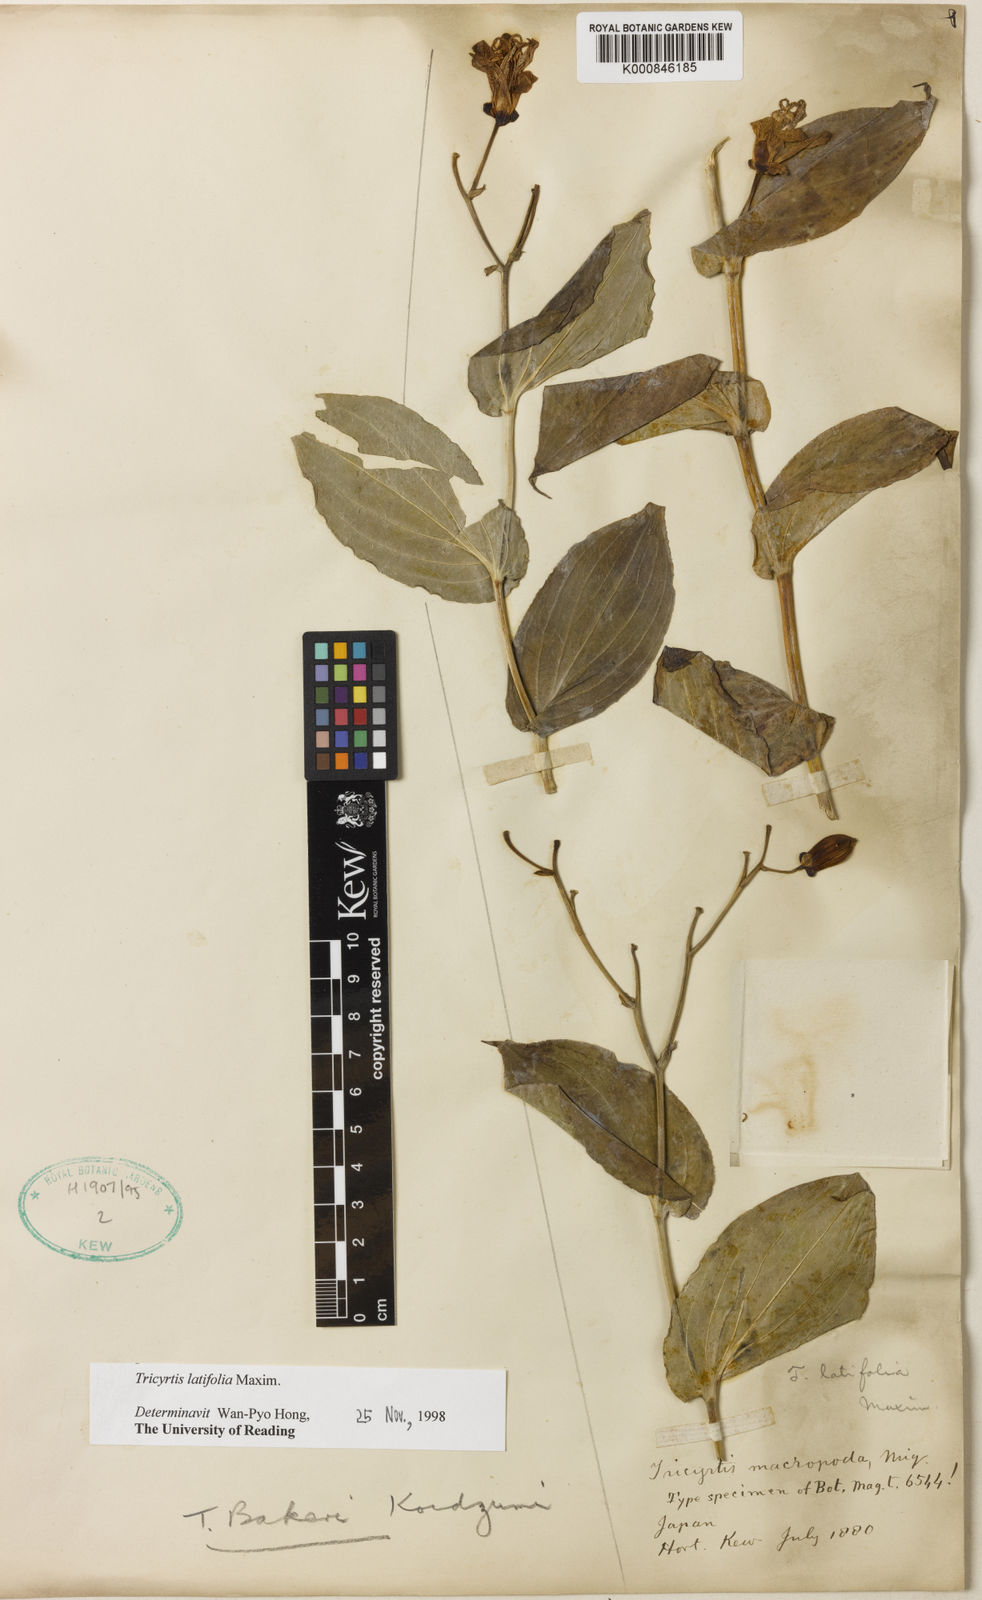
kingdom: Plantae
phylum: Tracheophyta
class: Liliopsida
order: Liliales
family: Liliaceae
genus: Tricyrtis
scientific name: Tricyrtis latifolia
